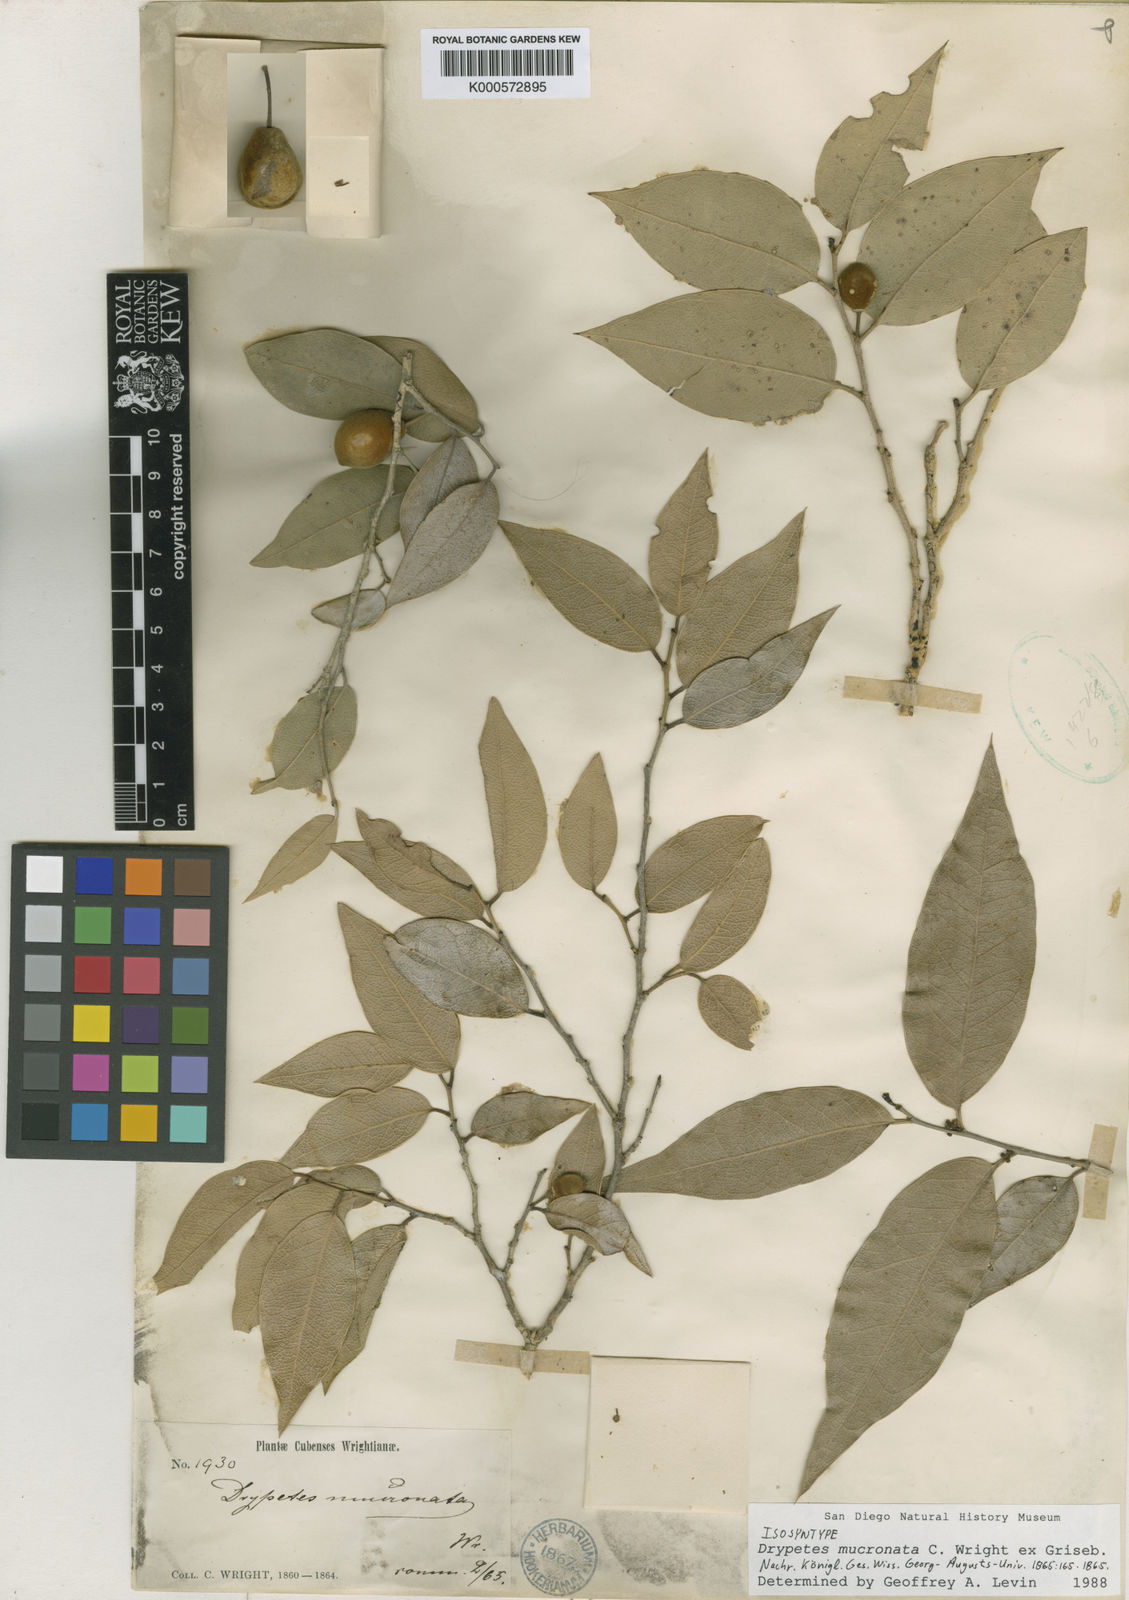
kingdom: Plantae
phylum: Tracheophyta
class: Magnoliopsida
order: Malpighiales
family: Putranjivaceae
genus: Drypetes
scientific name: Drypetes mucronata
